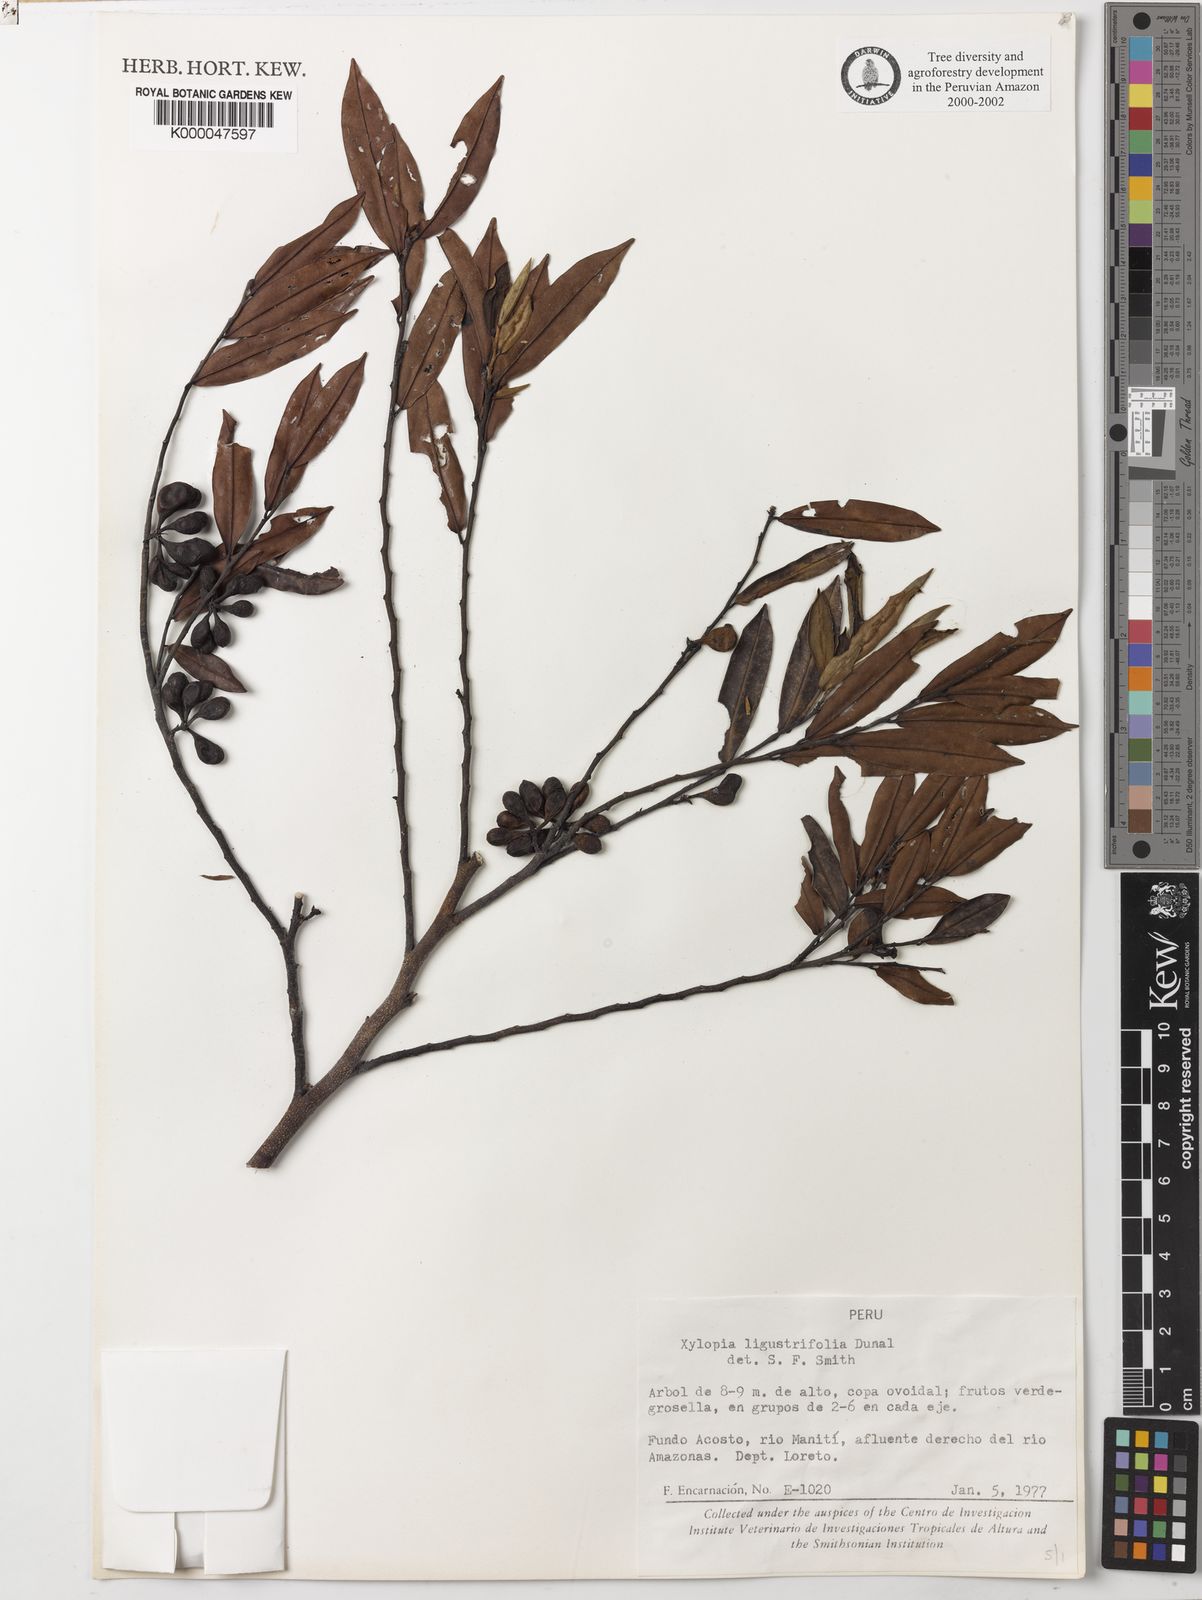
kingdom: Plantae
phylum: Tracheophyta
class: Magnoliopsida
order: Magnoliales
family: Annonaceae
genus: Xylopia
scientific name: Xylopia ligustrifolia
